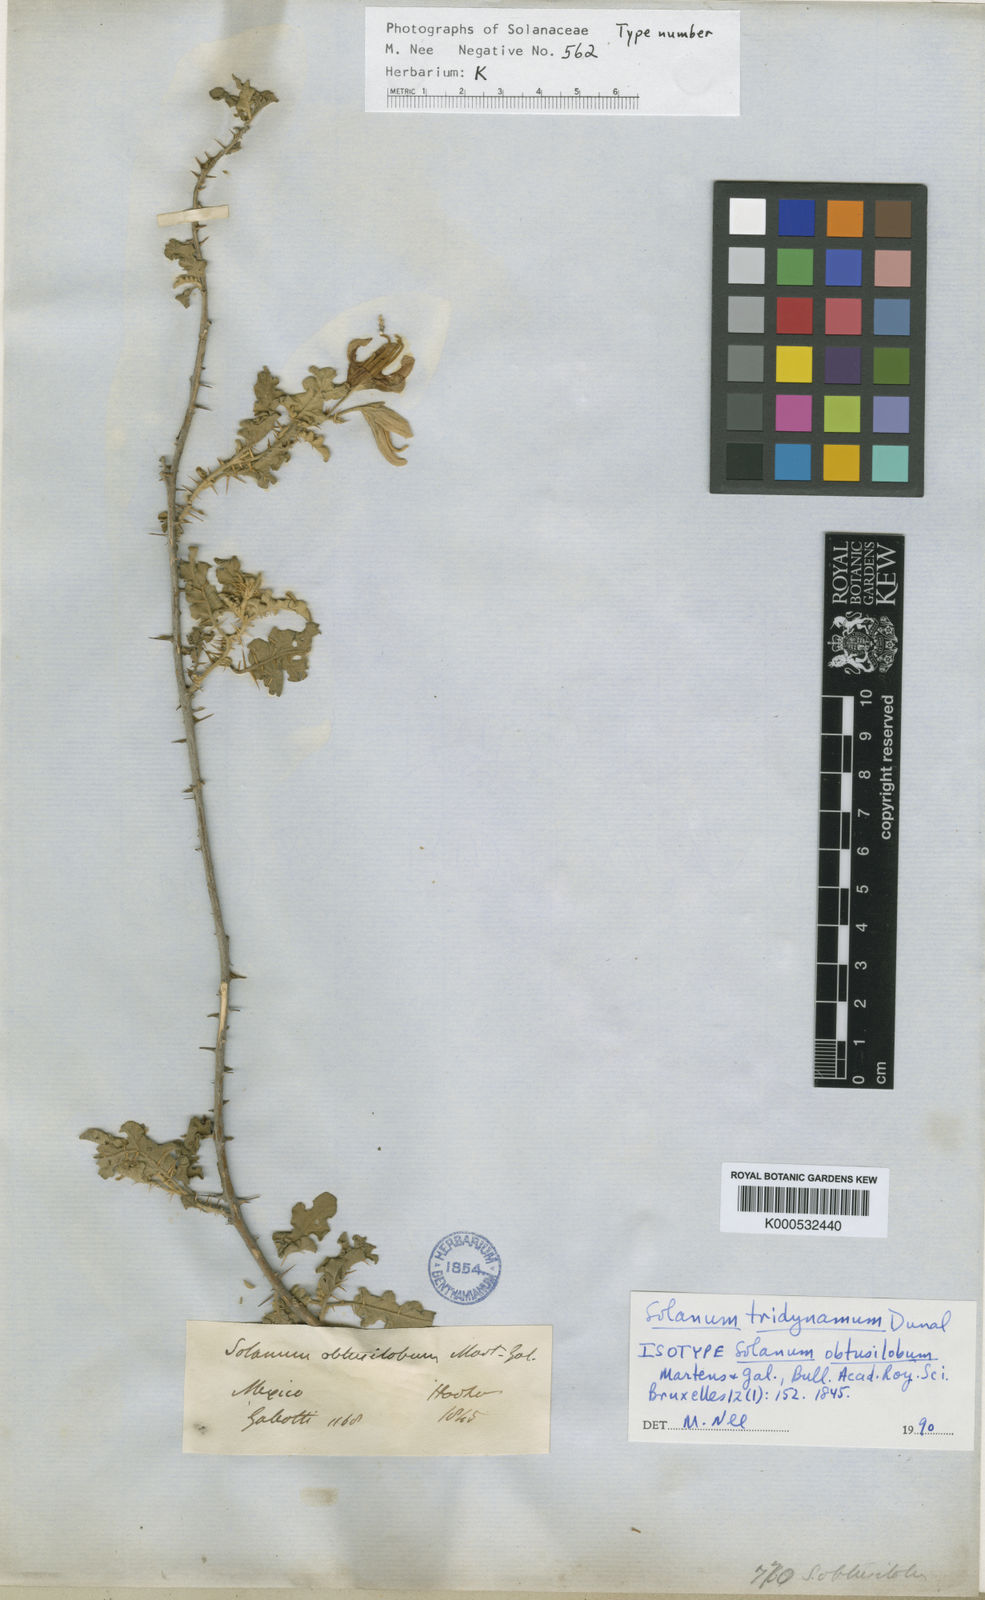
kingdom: Plantae
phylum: Tracheophyta
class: Magnoliopsida
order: Solanales
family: Solanaceae
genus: Solanum
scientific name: Solanum houstonii
